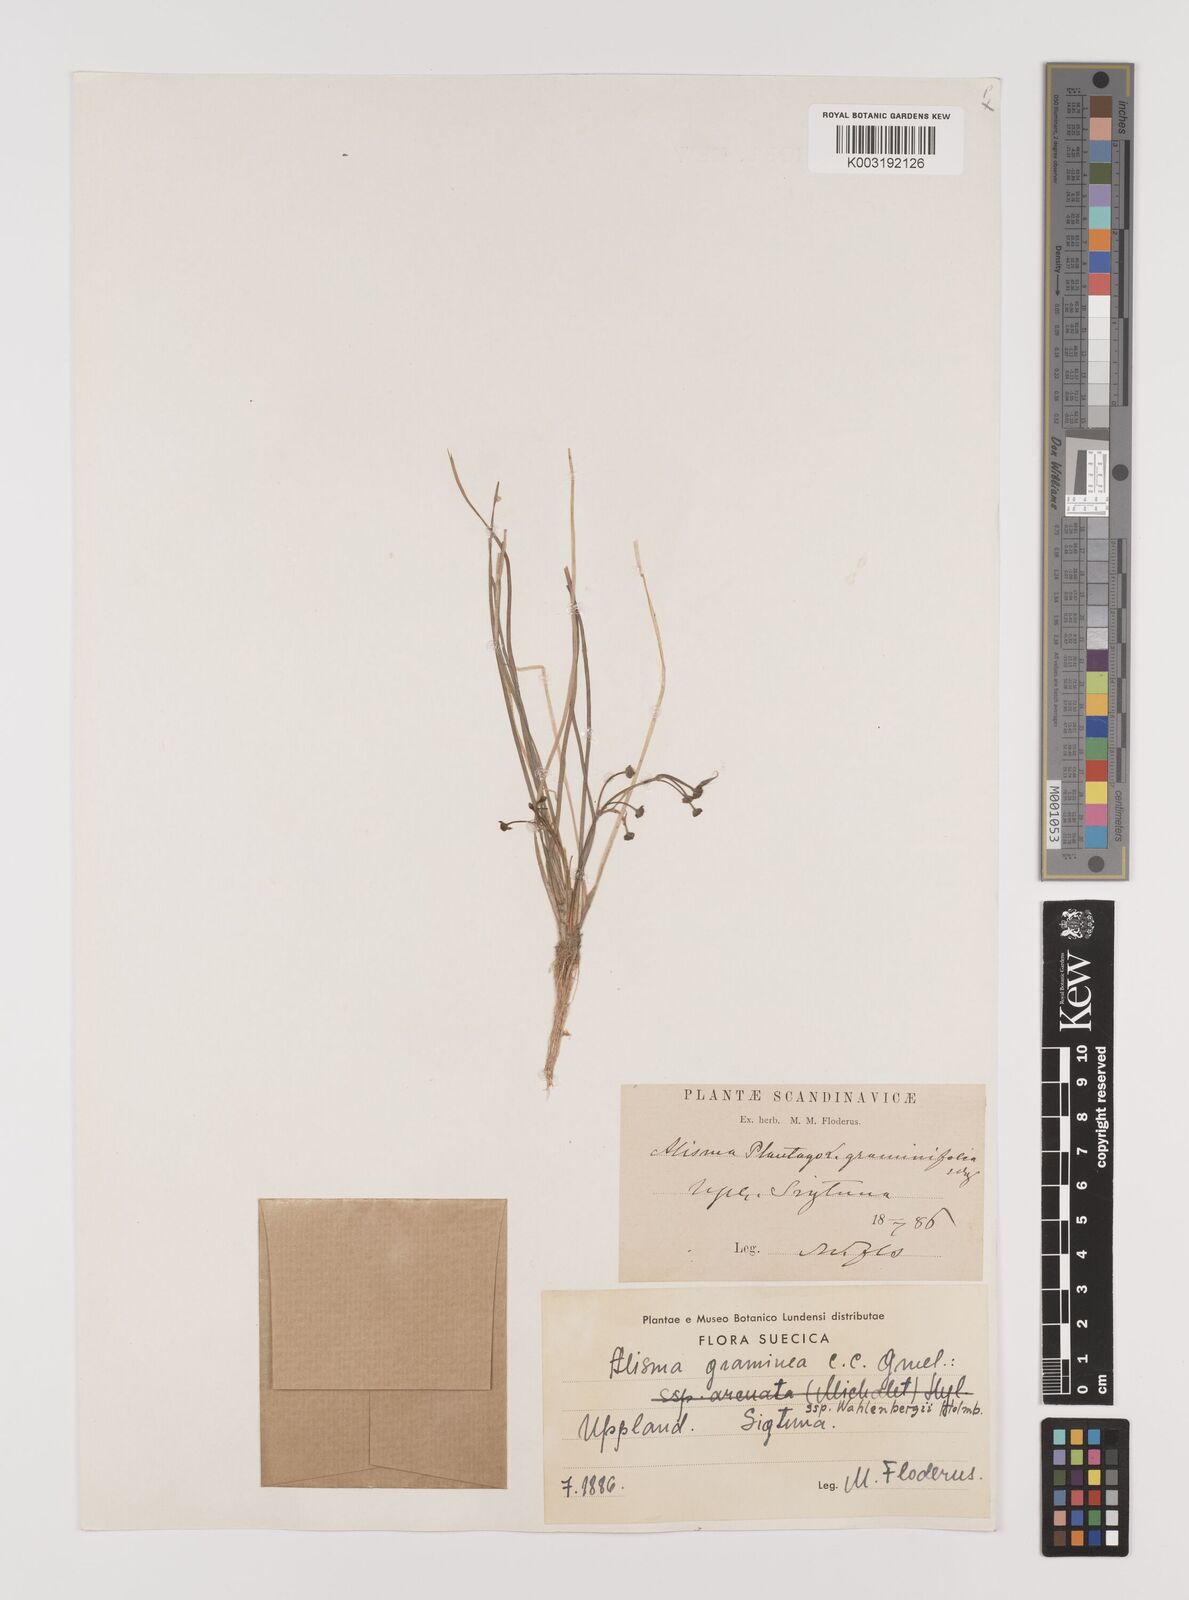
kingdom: Plantae
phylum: Tracheophyta
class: Liliopsida
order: Alismatales
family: Alismataceae
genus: Alisma
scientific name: Alisma plantago-aquatica
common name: Water-plantain
